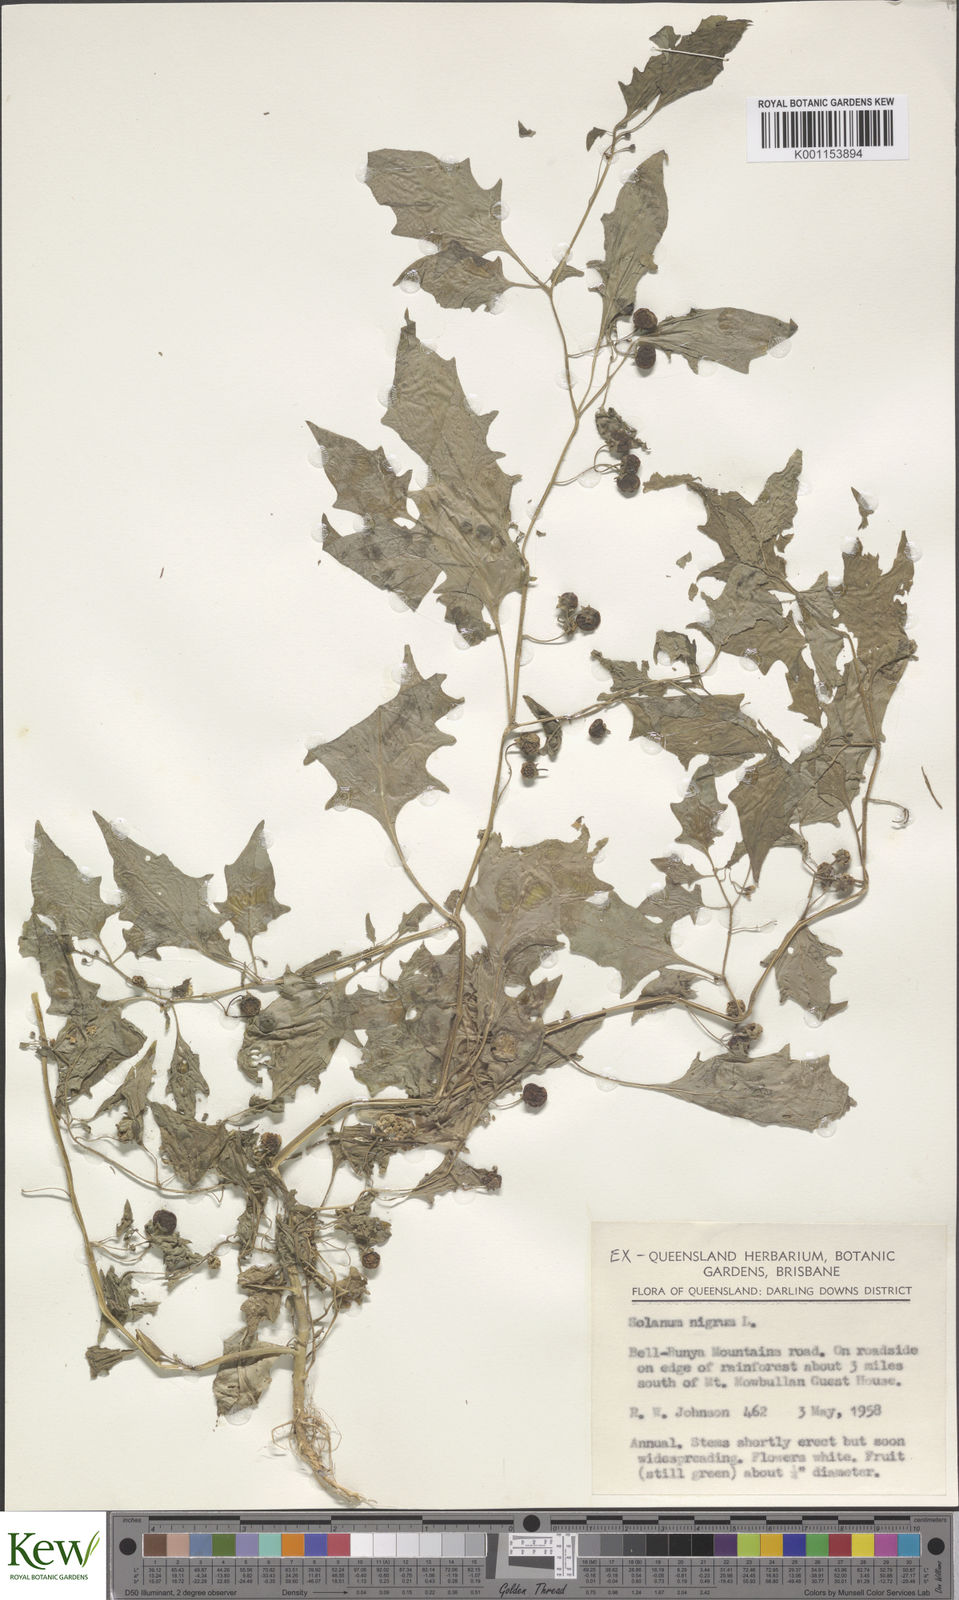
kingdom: Plantae
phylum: Tracheophyta
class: Magnoliopsida
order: Solanales
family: Solanaceae
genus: Solanum
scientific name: Solanum
